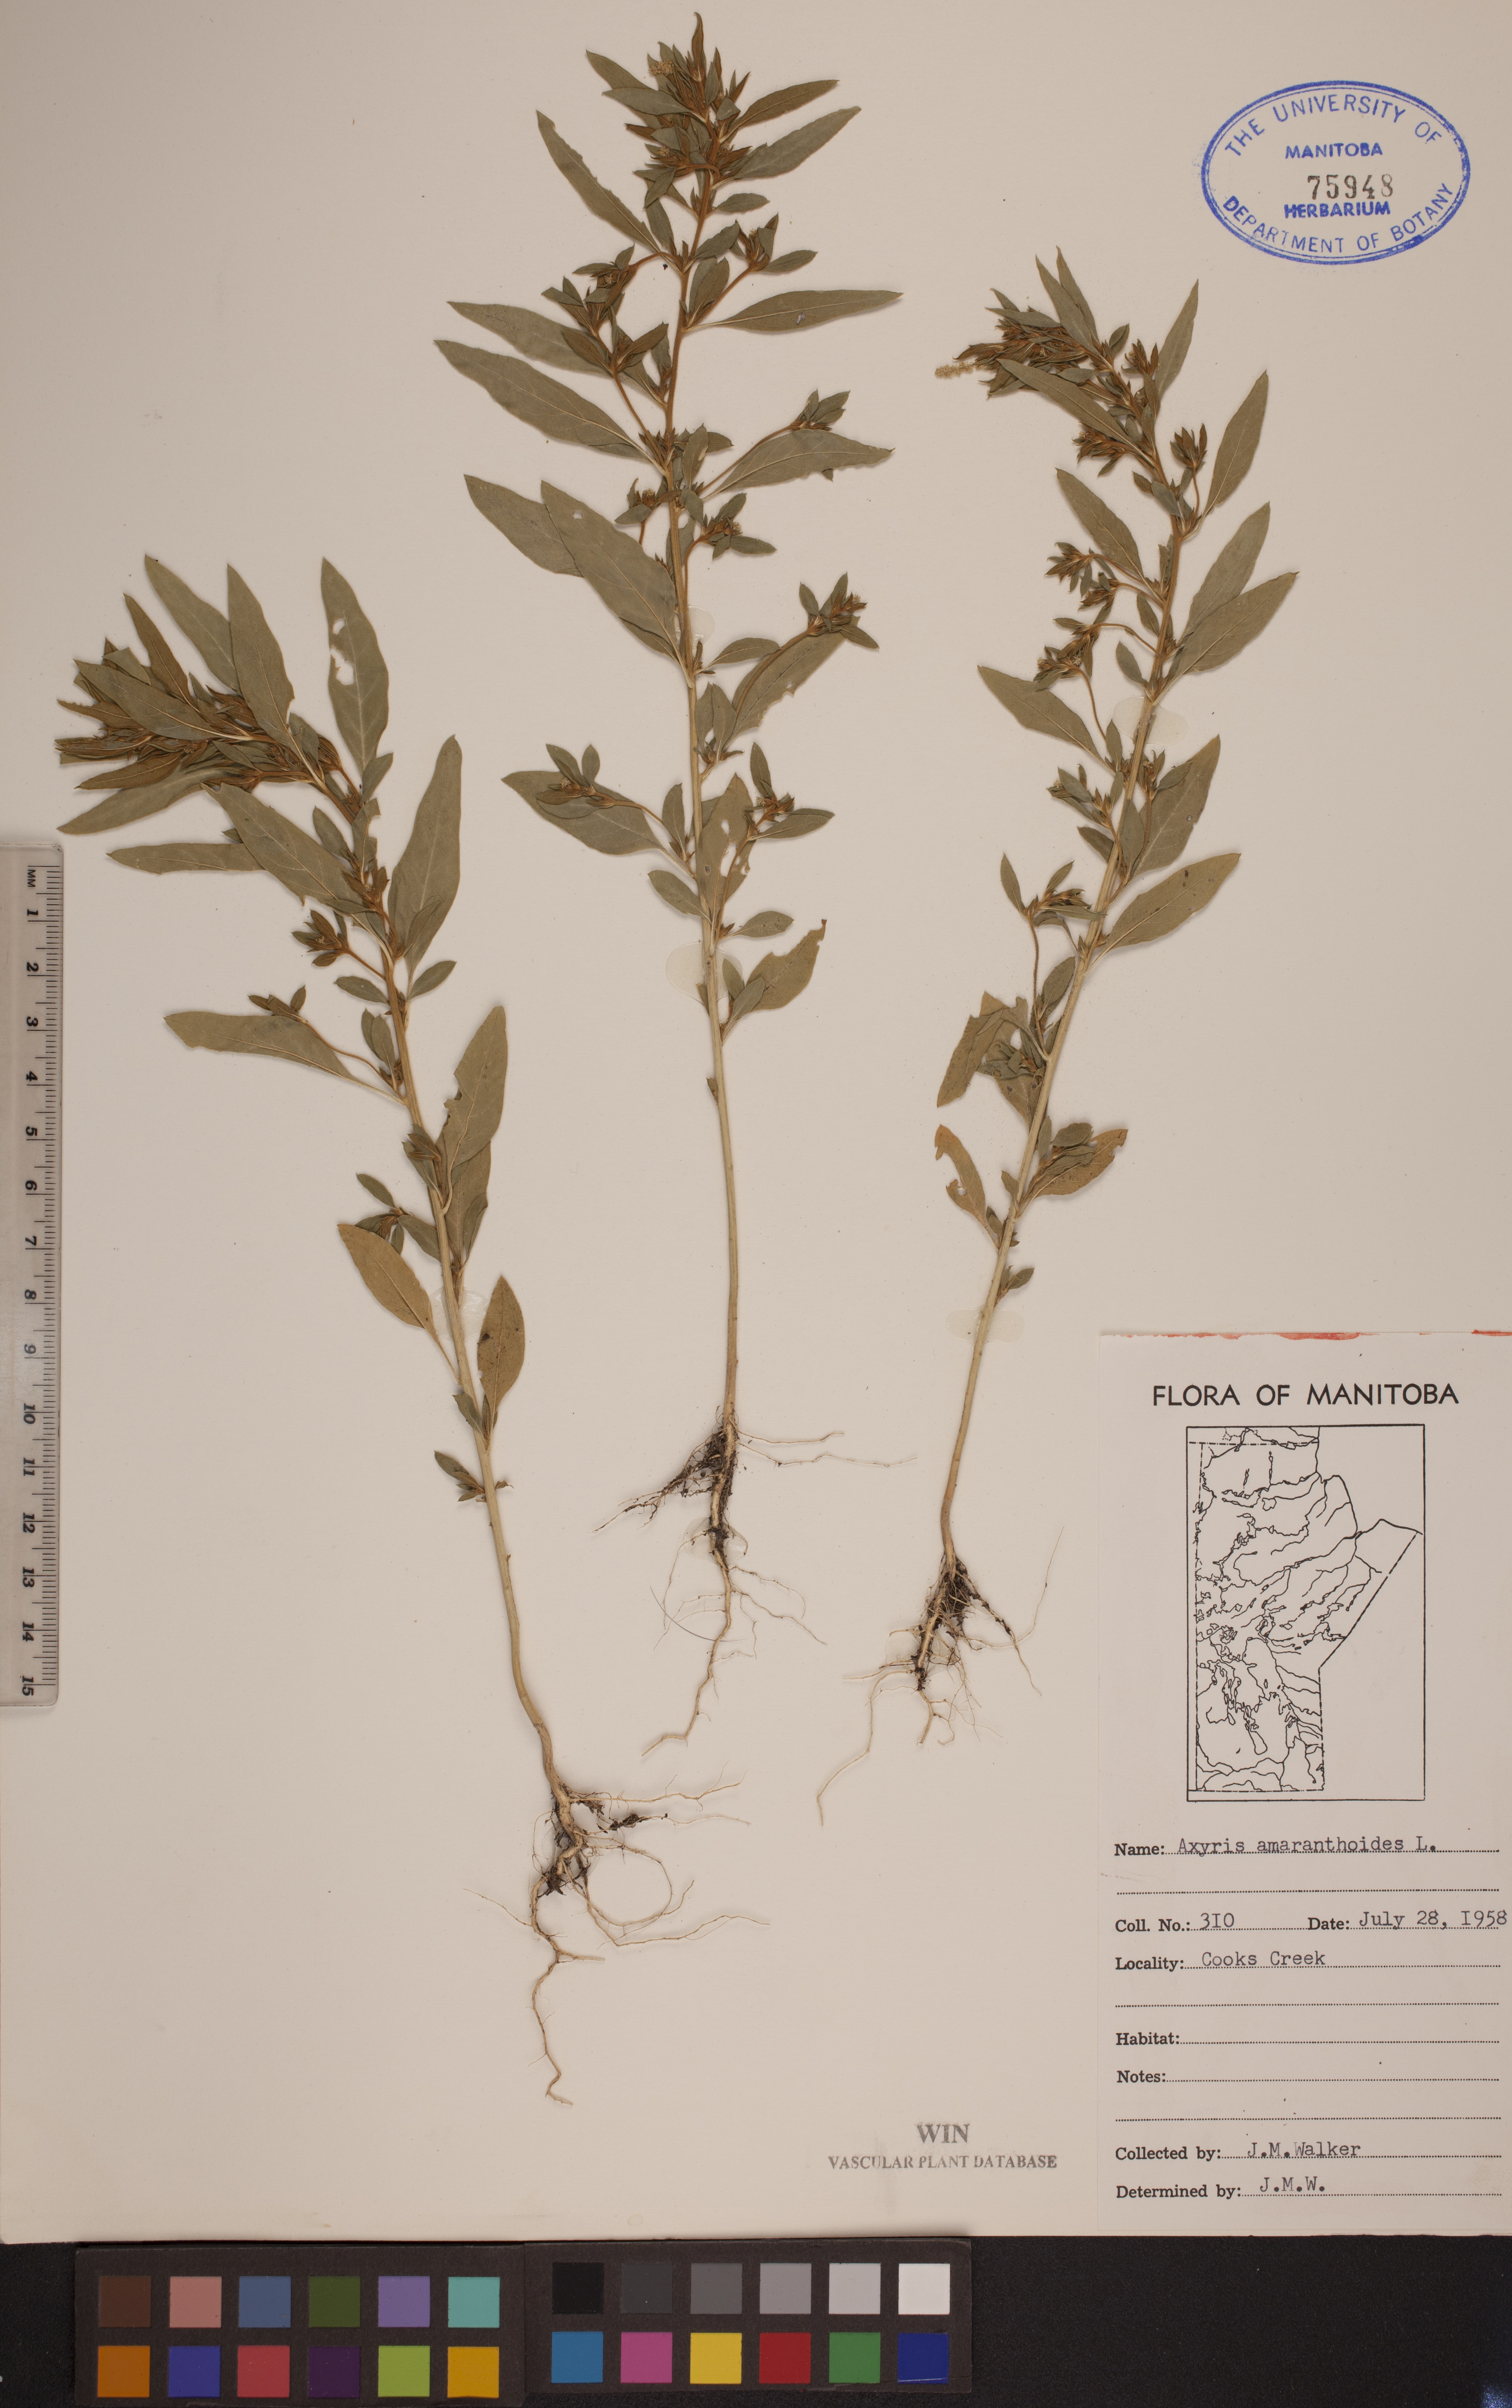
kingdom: Plantae
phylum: Tracheophyta
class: Magnoliopsida
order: Caryophyllales
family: Amaranthaceae
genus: Axyris
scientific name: Axyris amaranthoides
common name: Russian pigweed
